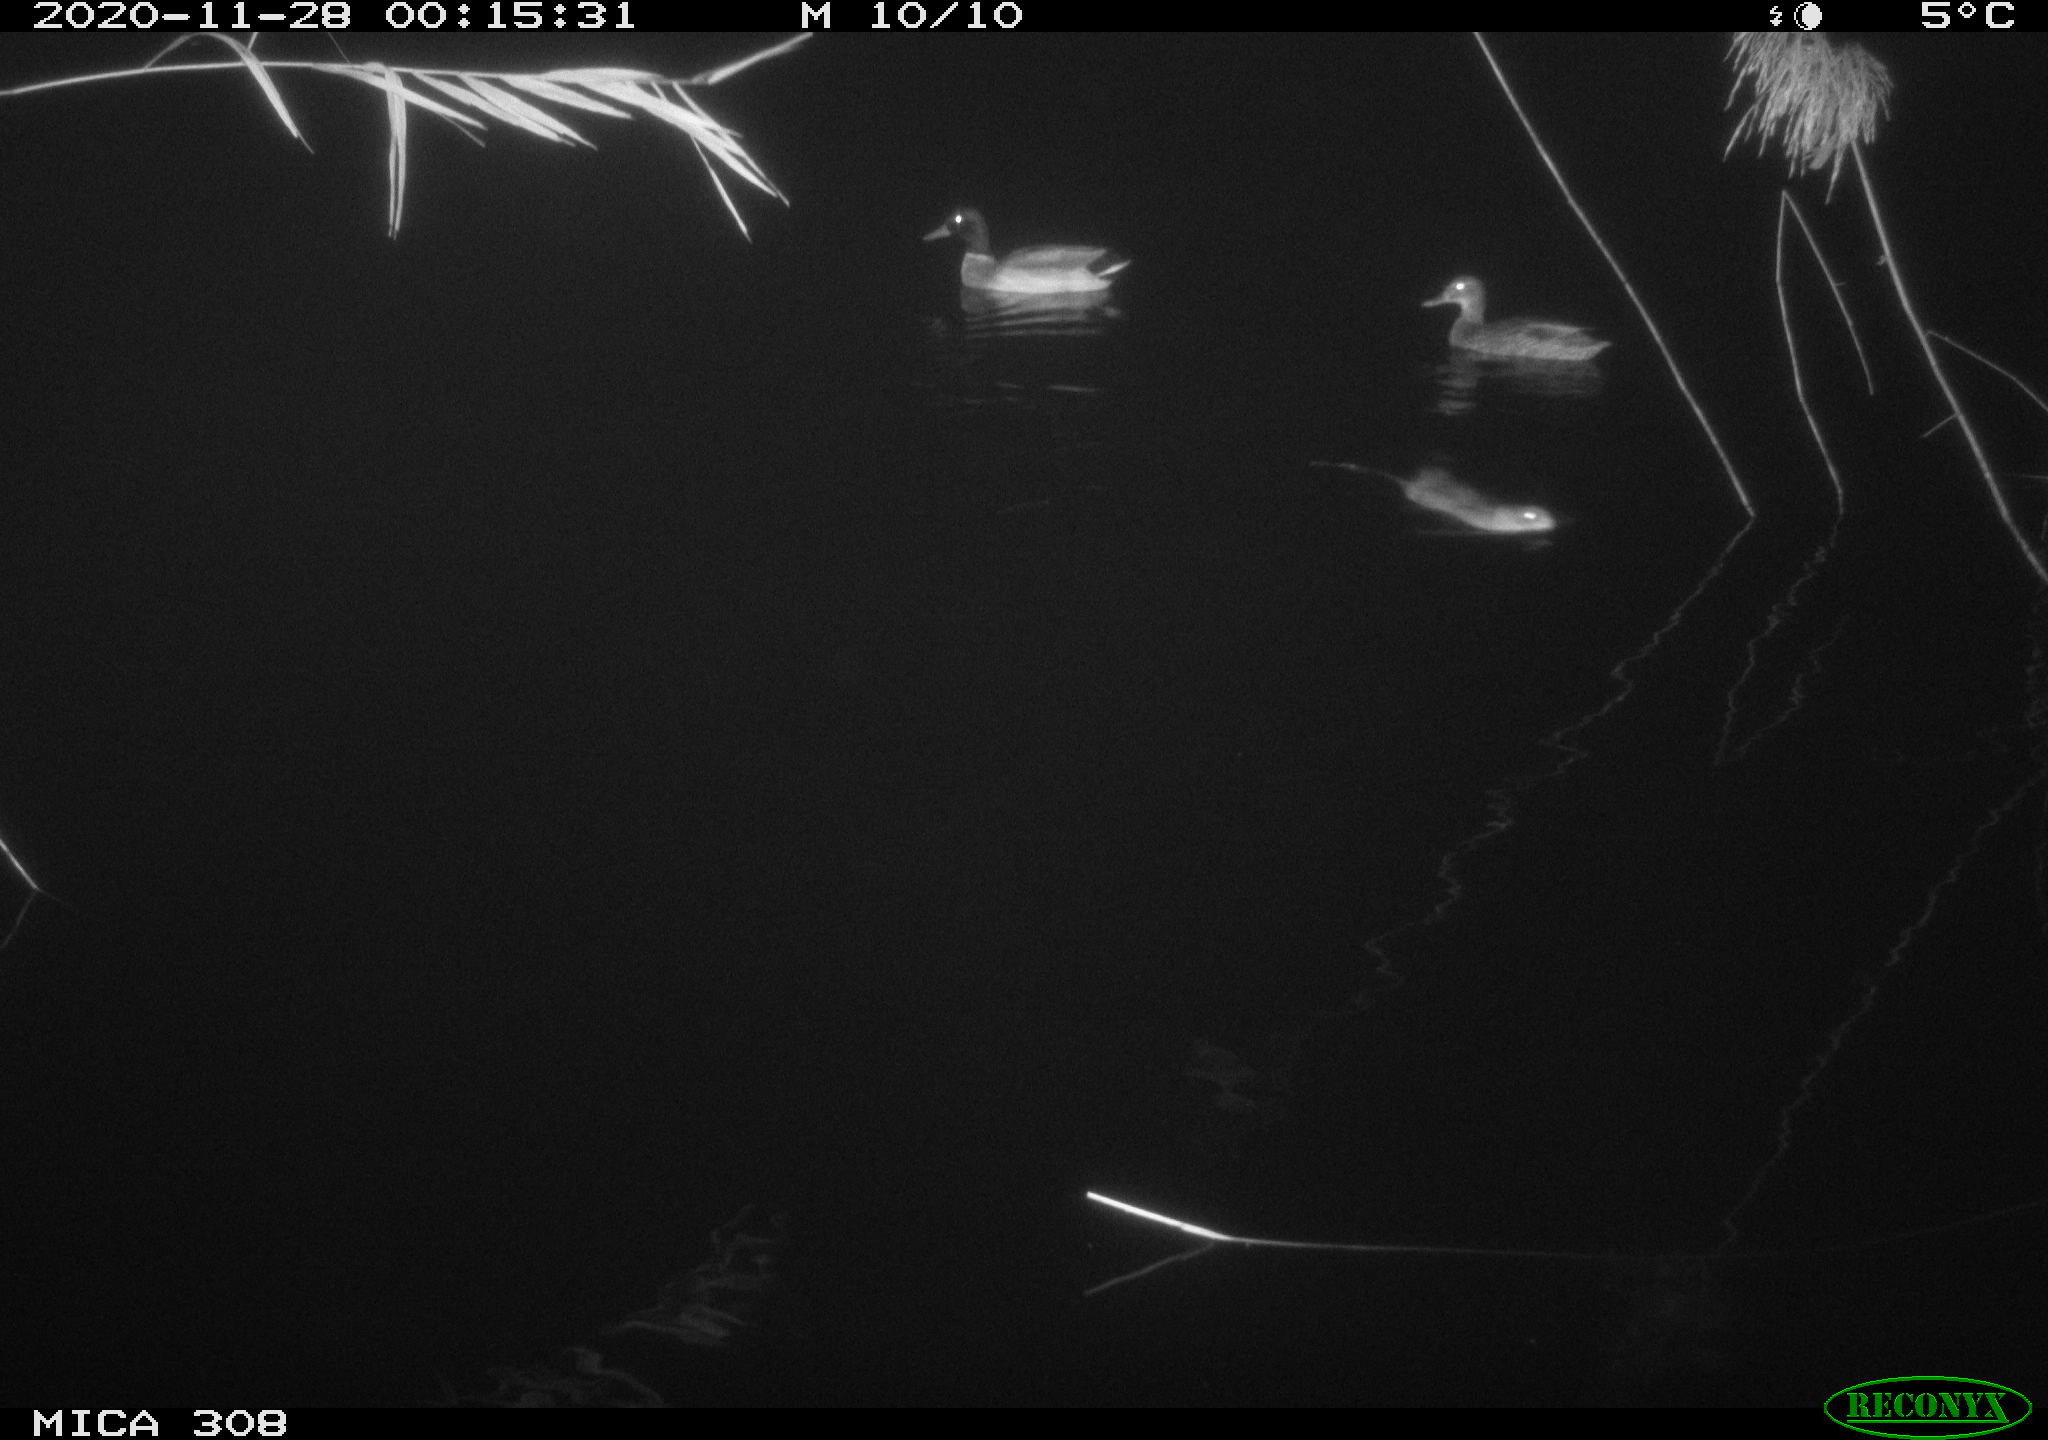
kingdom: Animalia
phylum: Chordata
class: Aves
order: Anseriformes
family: Anatidae
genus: Anas
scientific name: Anas platyrhynchos
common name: Mallard
